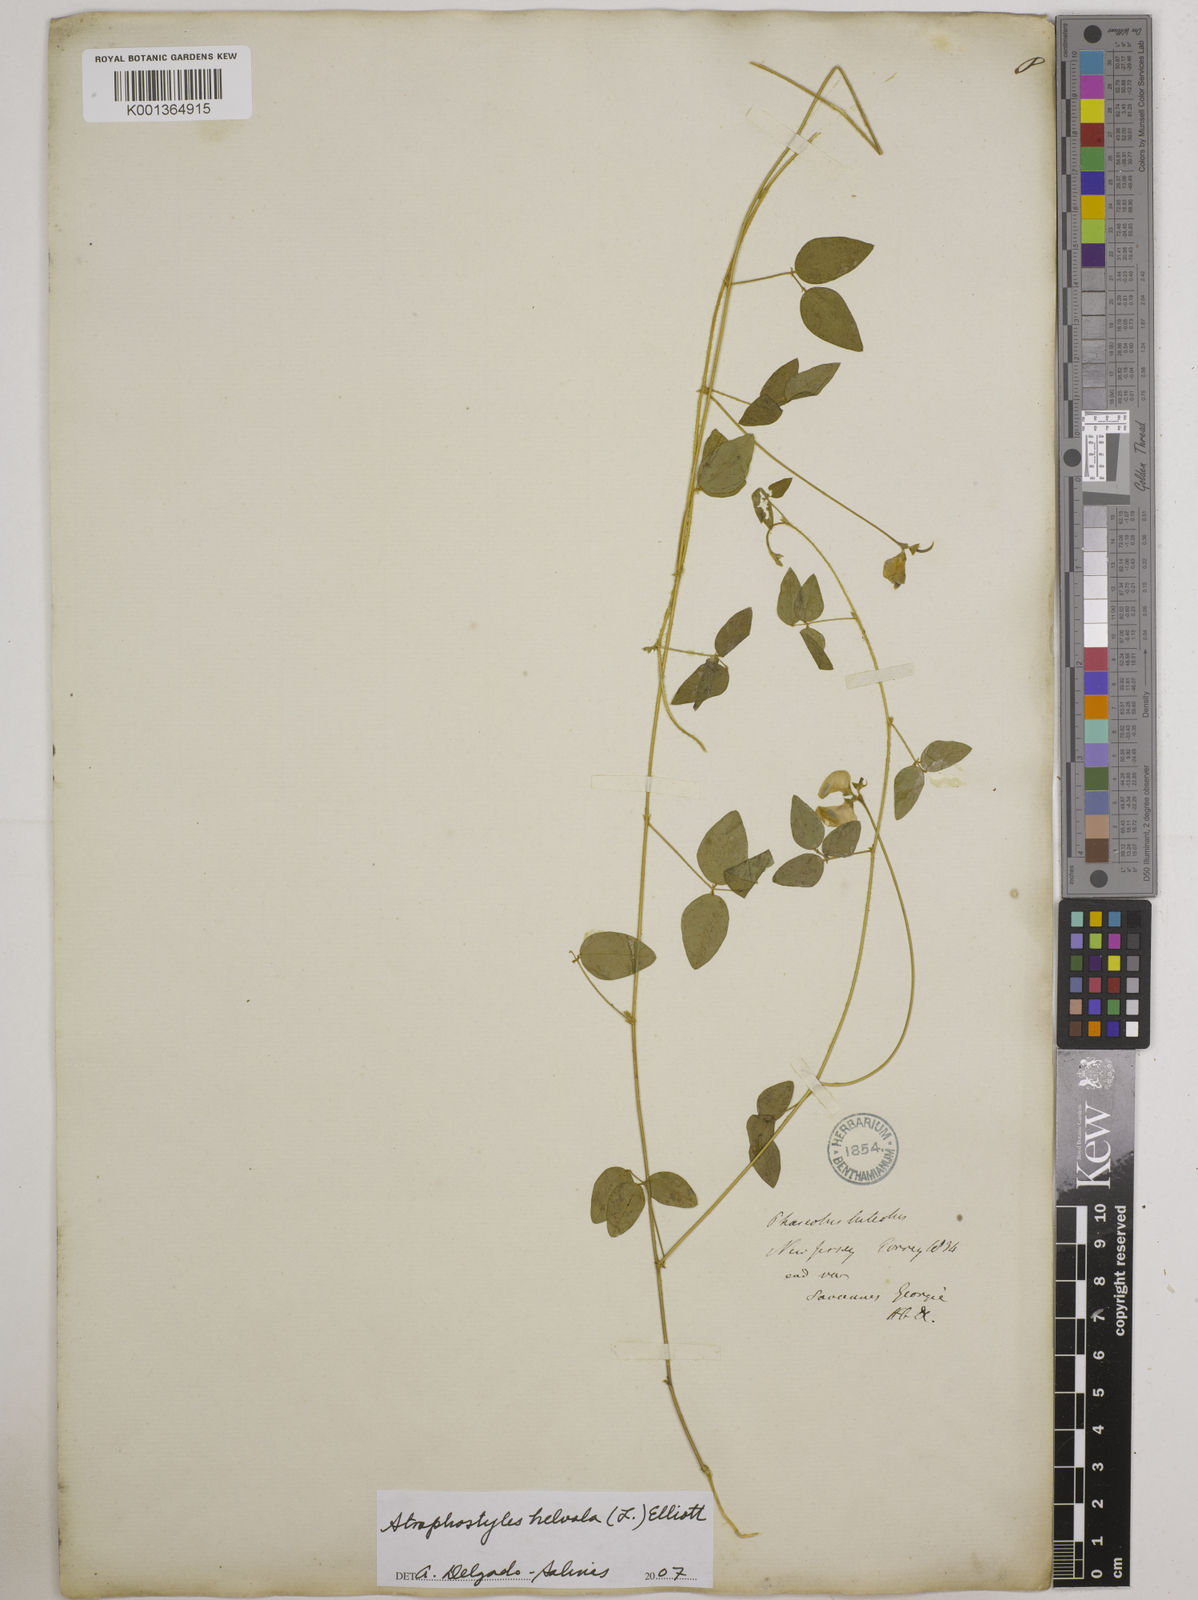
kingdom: Plantae
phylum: Tracheophyta
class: Magnoliopsida
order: Fabales
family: Fabaceae
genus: Strophostyles
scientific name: Strophostyles
